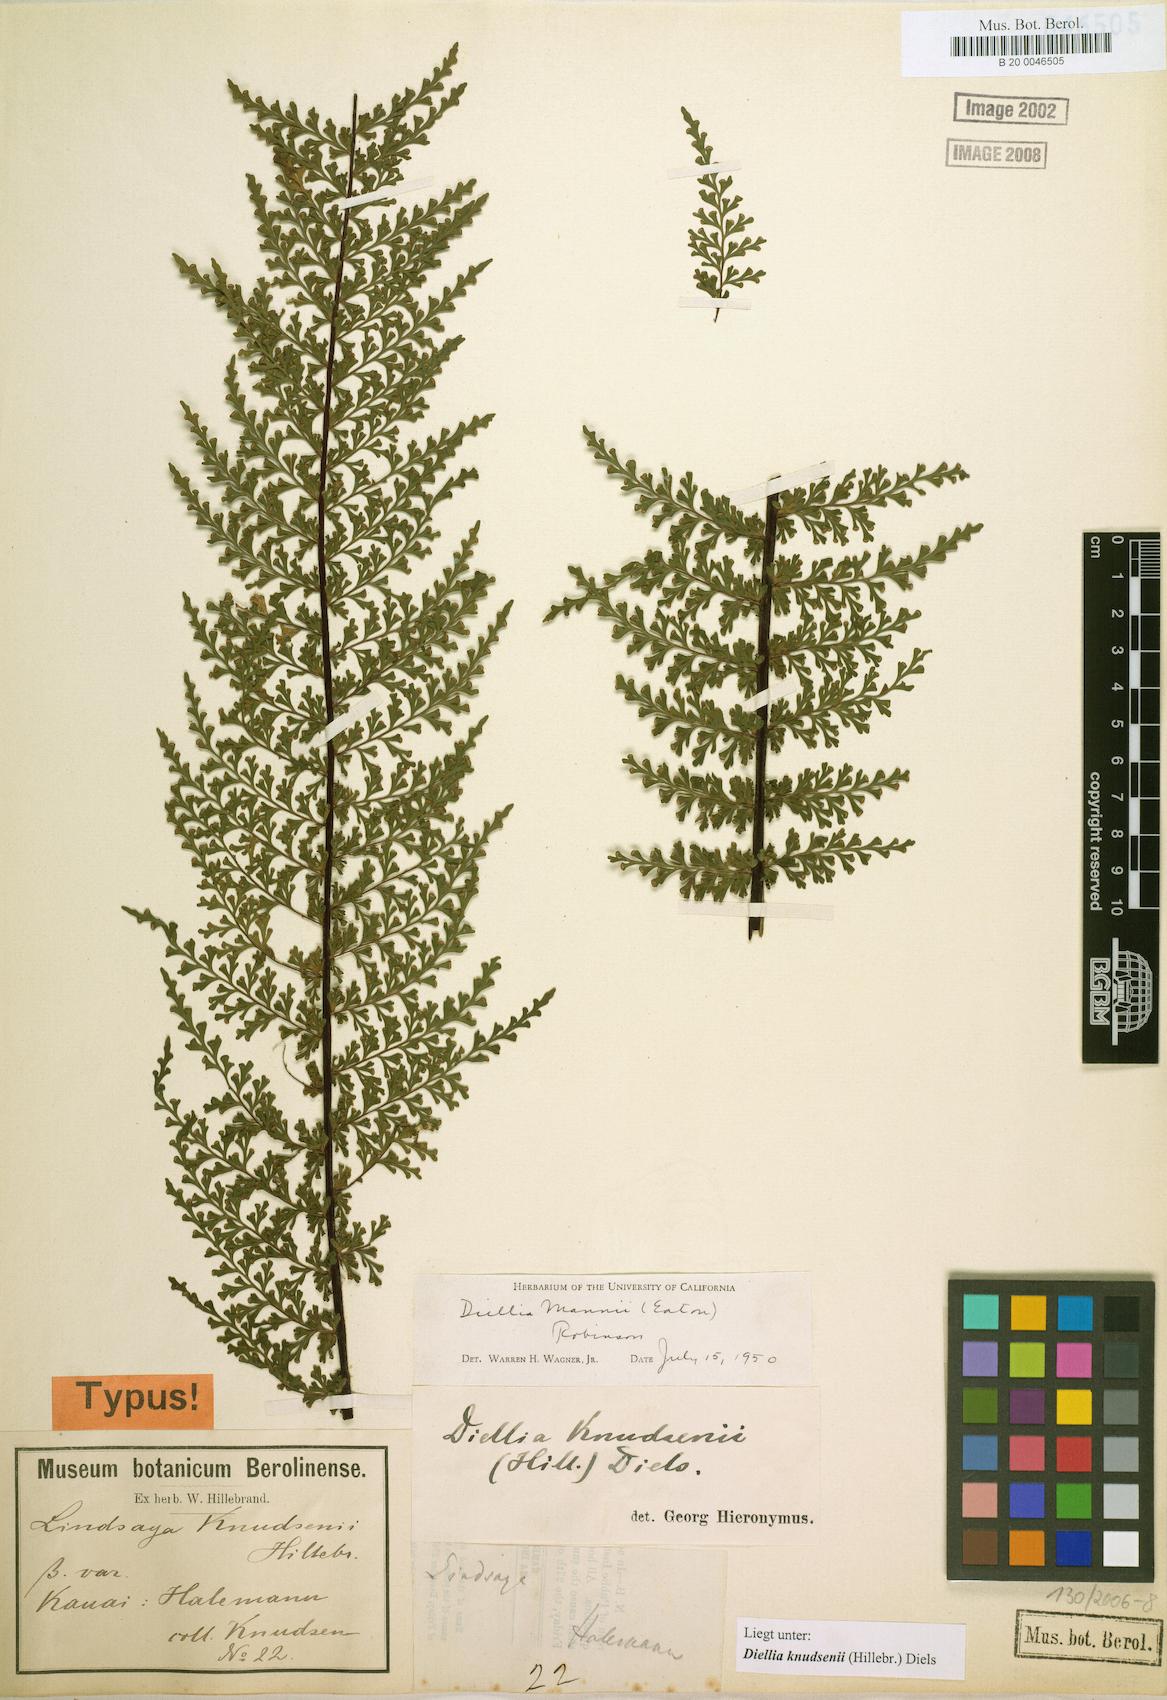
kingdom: Plantae
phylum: Tracheophyta
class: Polypodiopsida
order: Polypodiales
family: Aspleniaceae
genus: Asplenium
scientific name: Asplenium dielmannii
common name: Mann's island spleenwort
